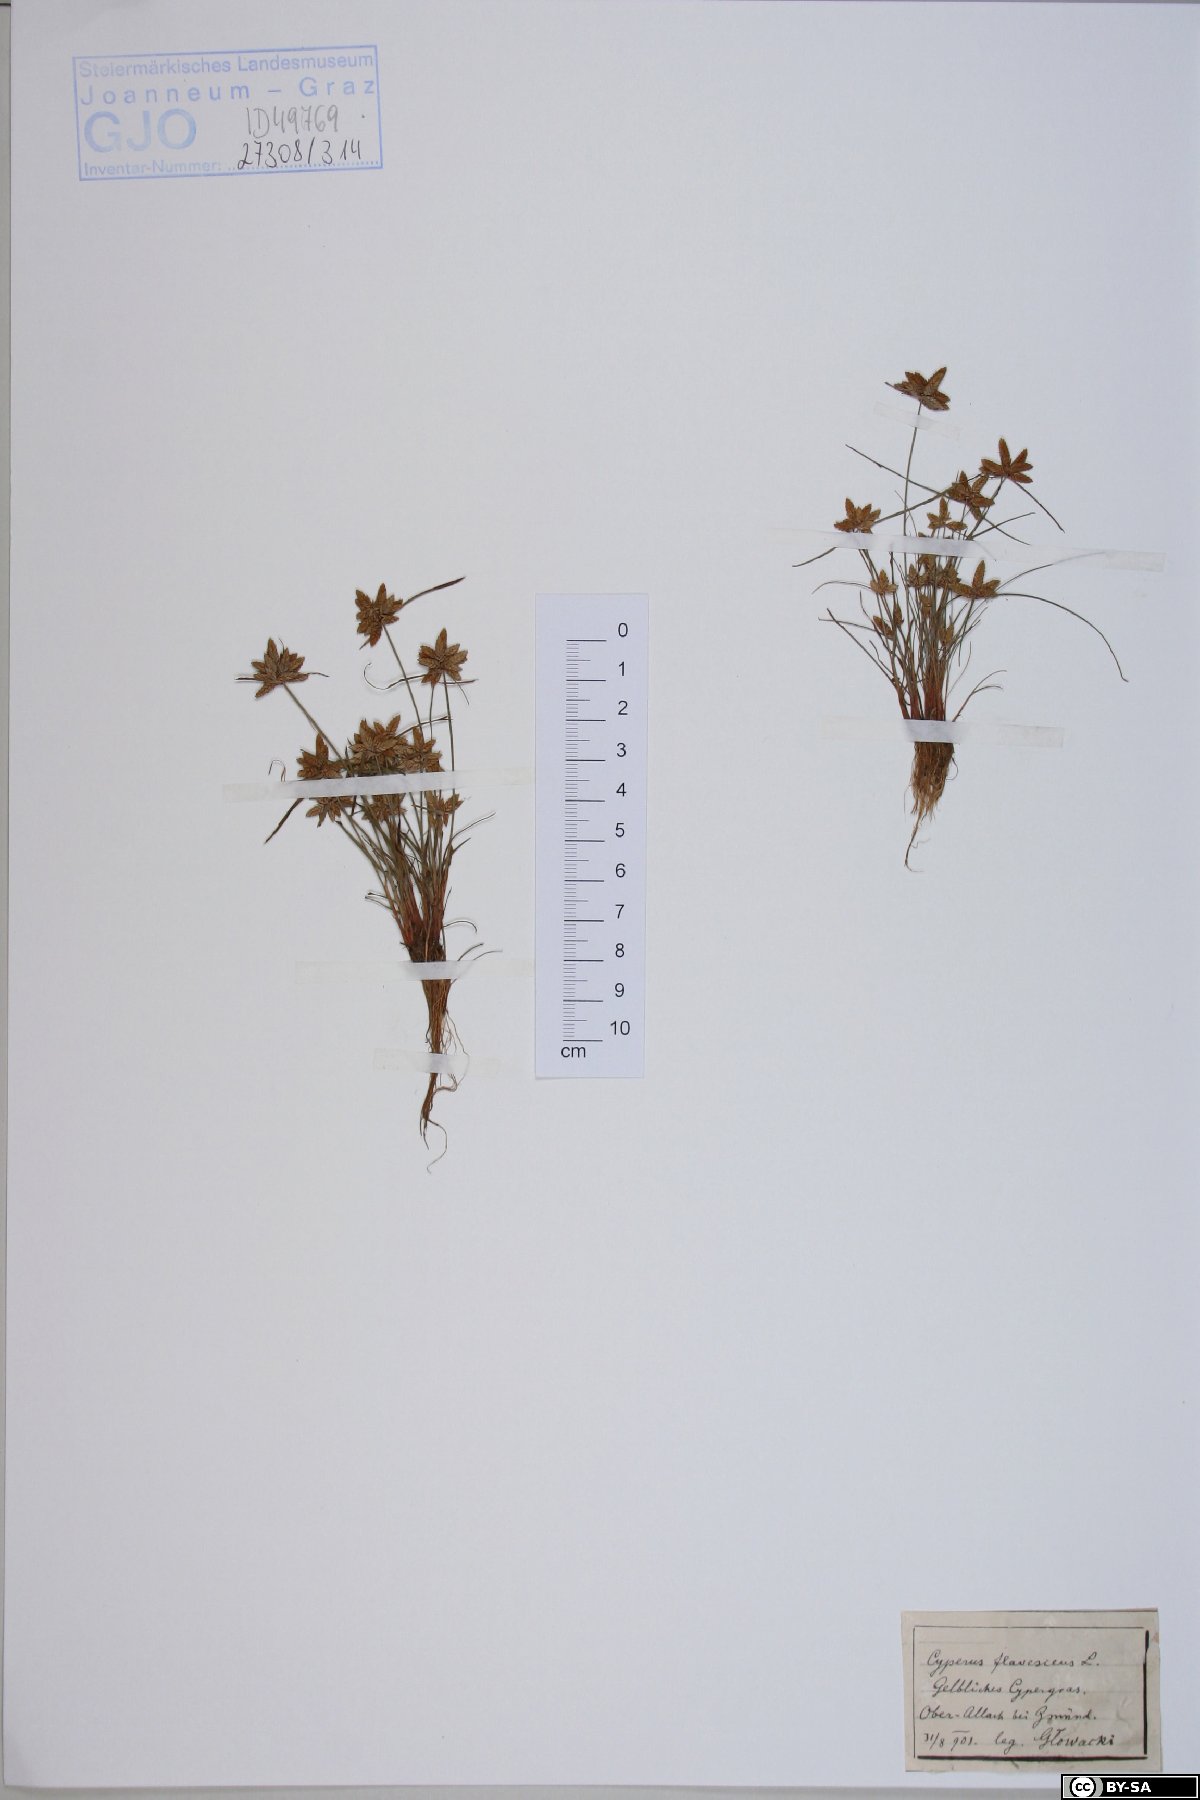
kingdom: Plantae
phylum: Tracheophyta
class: Liliopsida
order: Poales
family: Cyperaceae
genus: Cyperus
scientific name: Cyperus flavescens
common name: Yellow galingale
